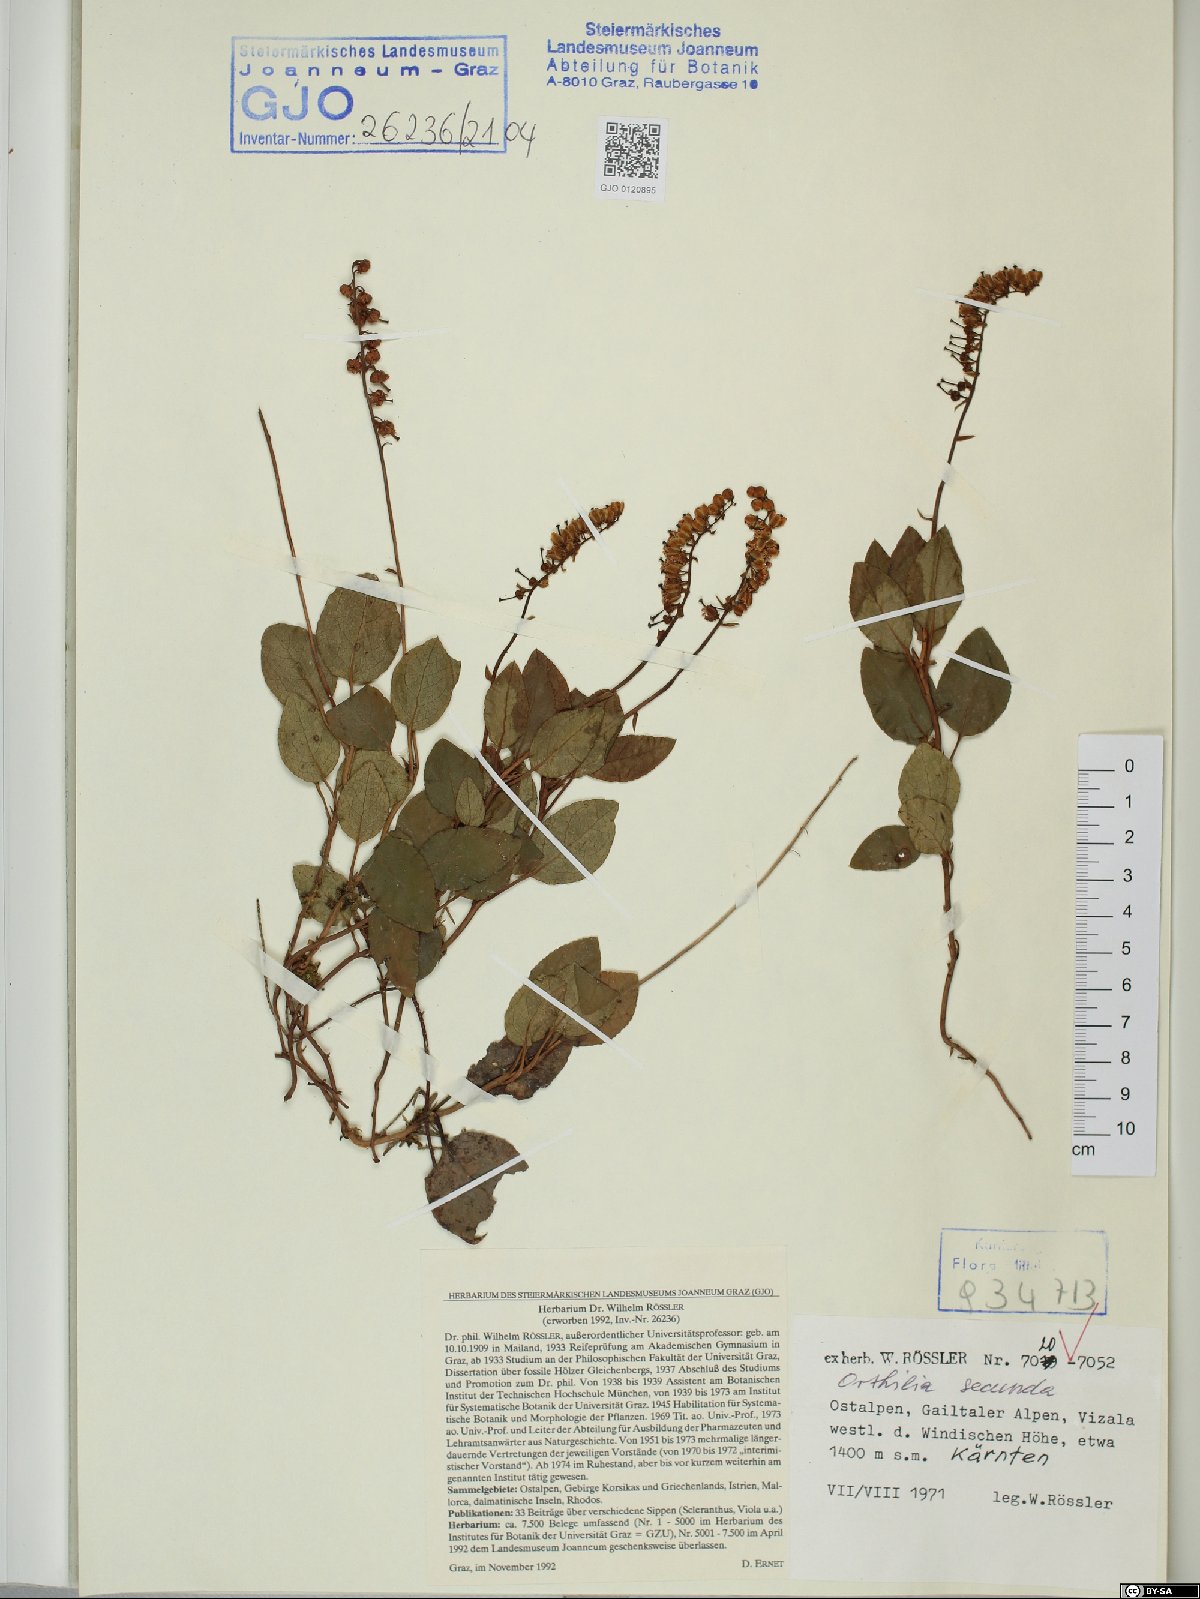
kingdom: Plantae
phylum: Tracheophyta
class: Magnoliopsida
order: Ericales
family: Ericaceae
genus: Orthilia
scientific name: Orthilia secunda
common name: One-sided orthilia
